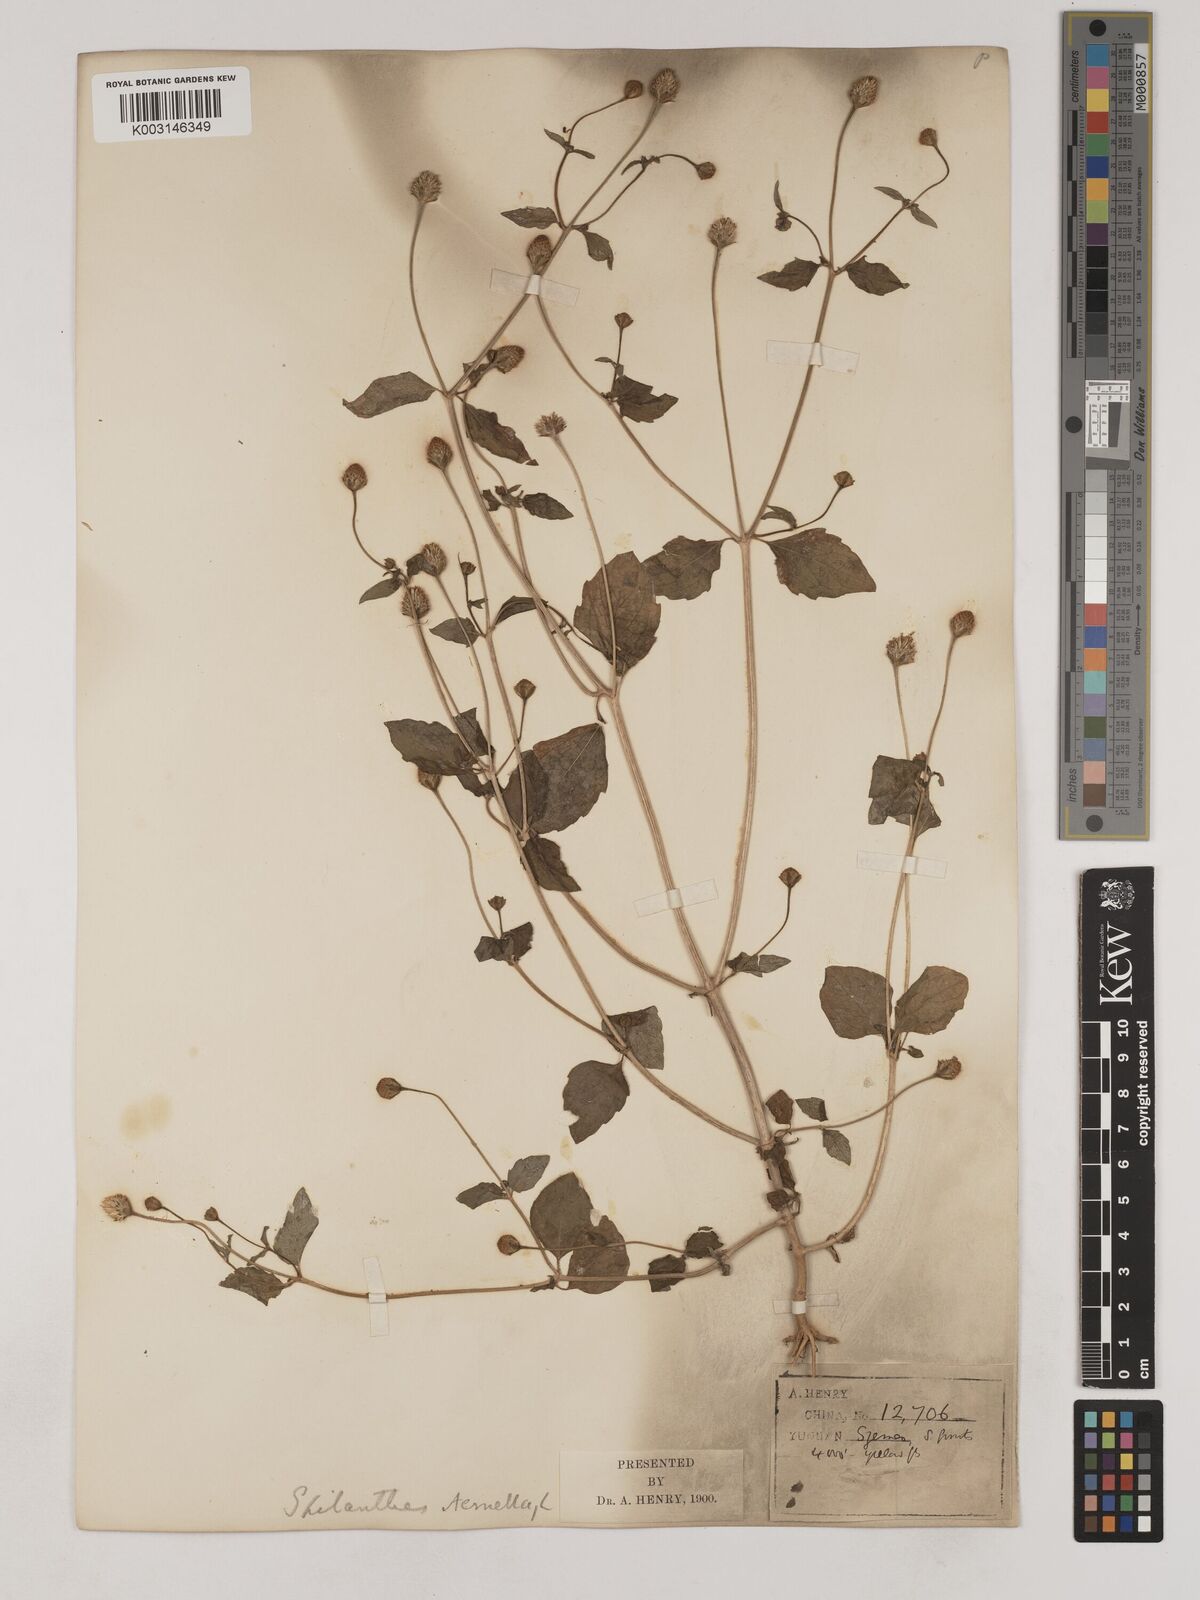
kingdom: Plantae
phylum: Tracheophyta
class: Magnoliopsida
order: Asterales
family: Asteraceae
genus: Acmella
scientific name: Acmella paniculata
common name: Panicled spot flower
